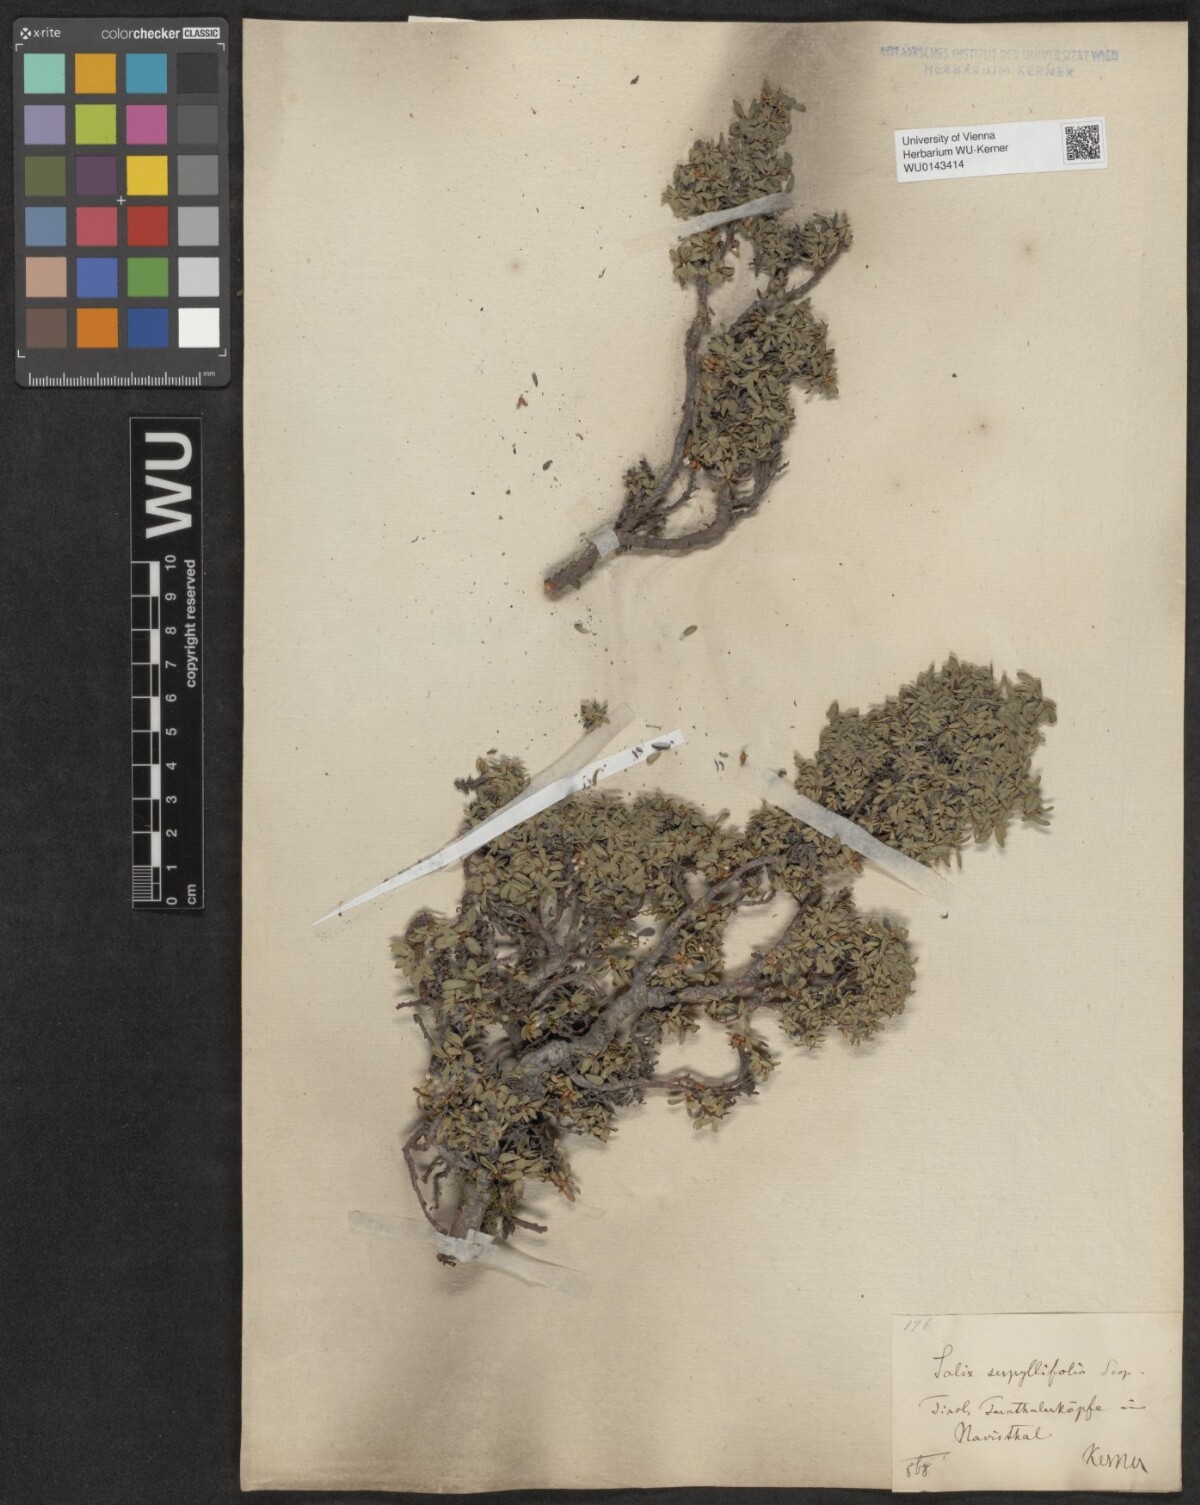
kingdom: Plantae
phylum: Tracheophyta
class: Magnoliopsida
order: Malpighiales
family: Salicaceae
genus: Salix
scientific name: Salix serpillifolia
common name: Thyme-leaf willow
